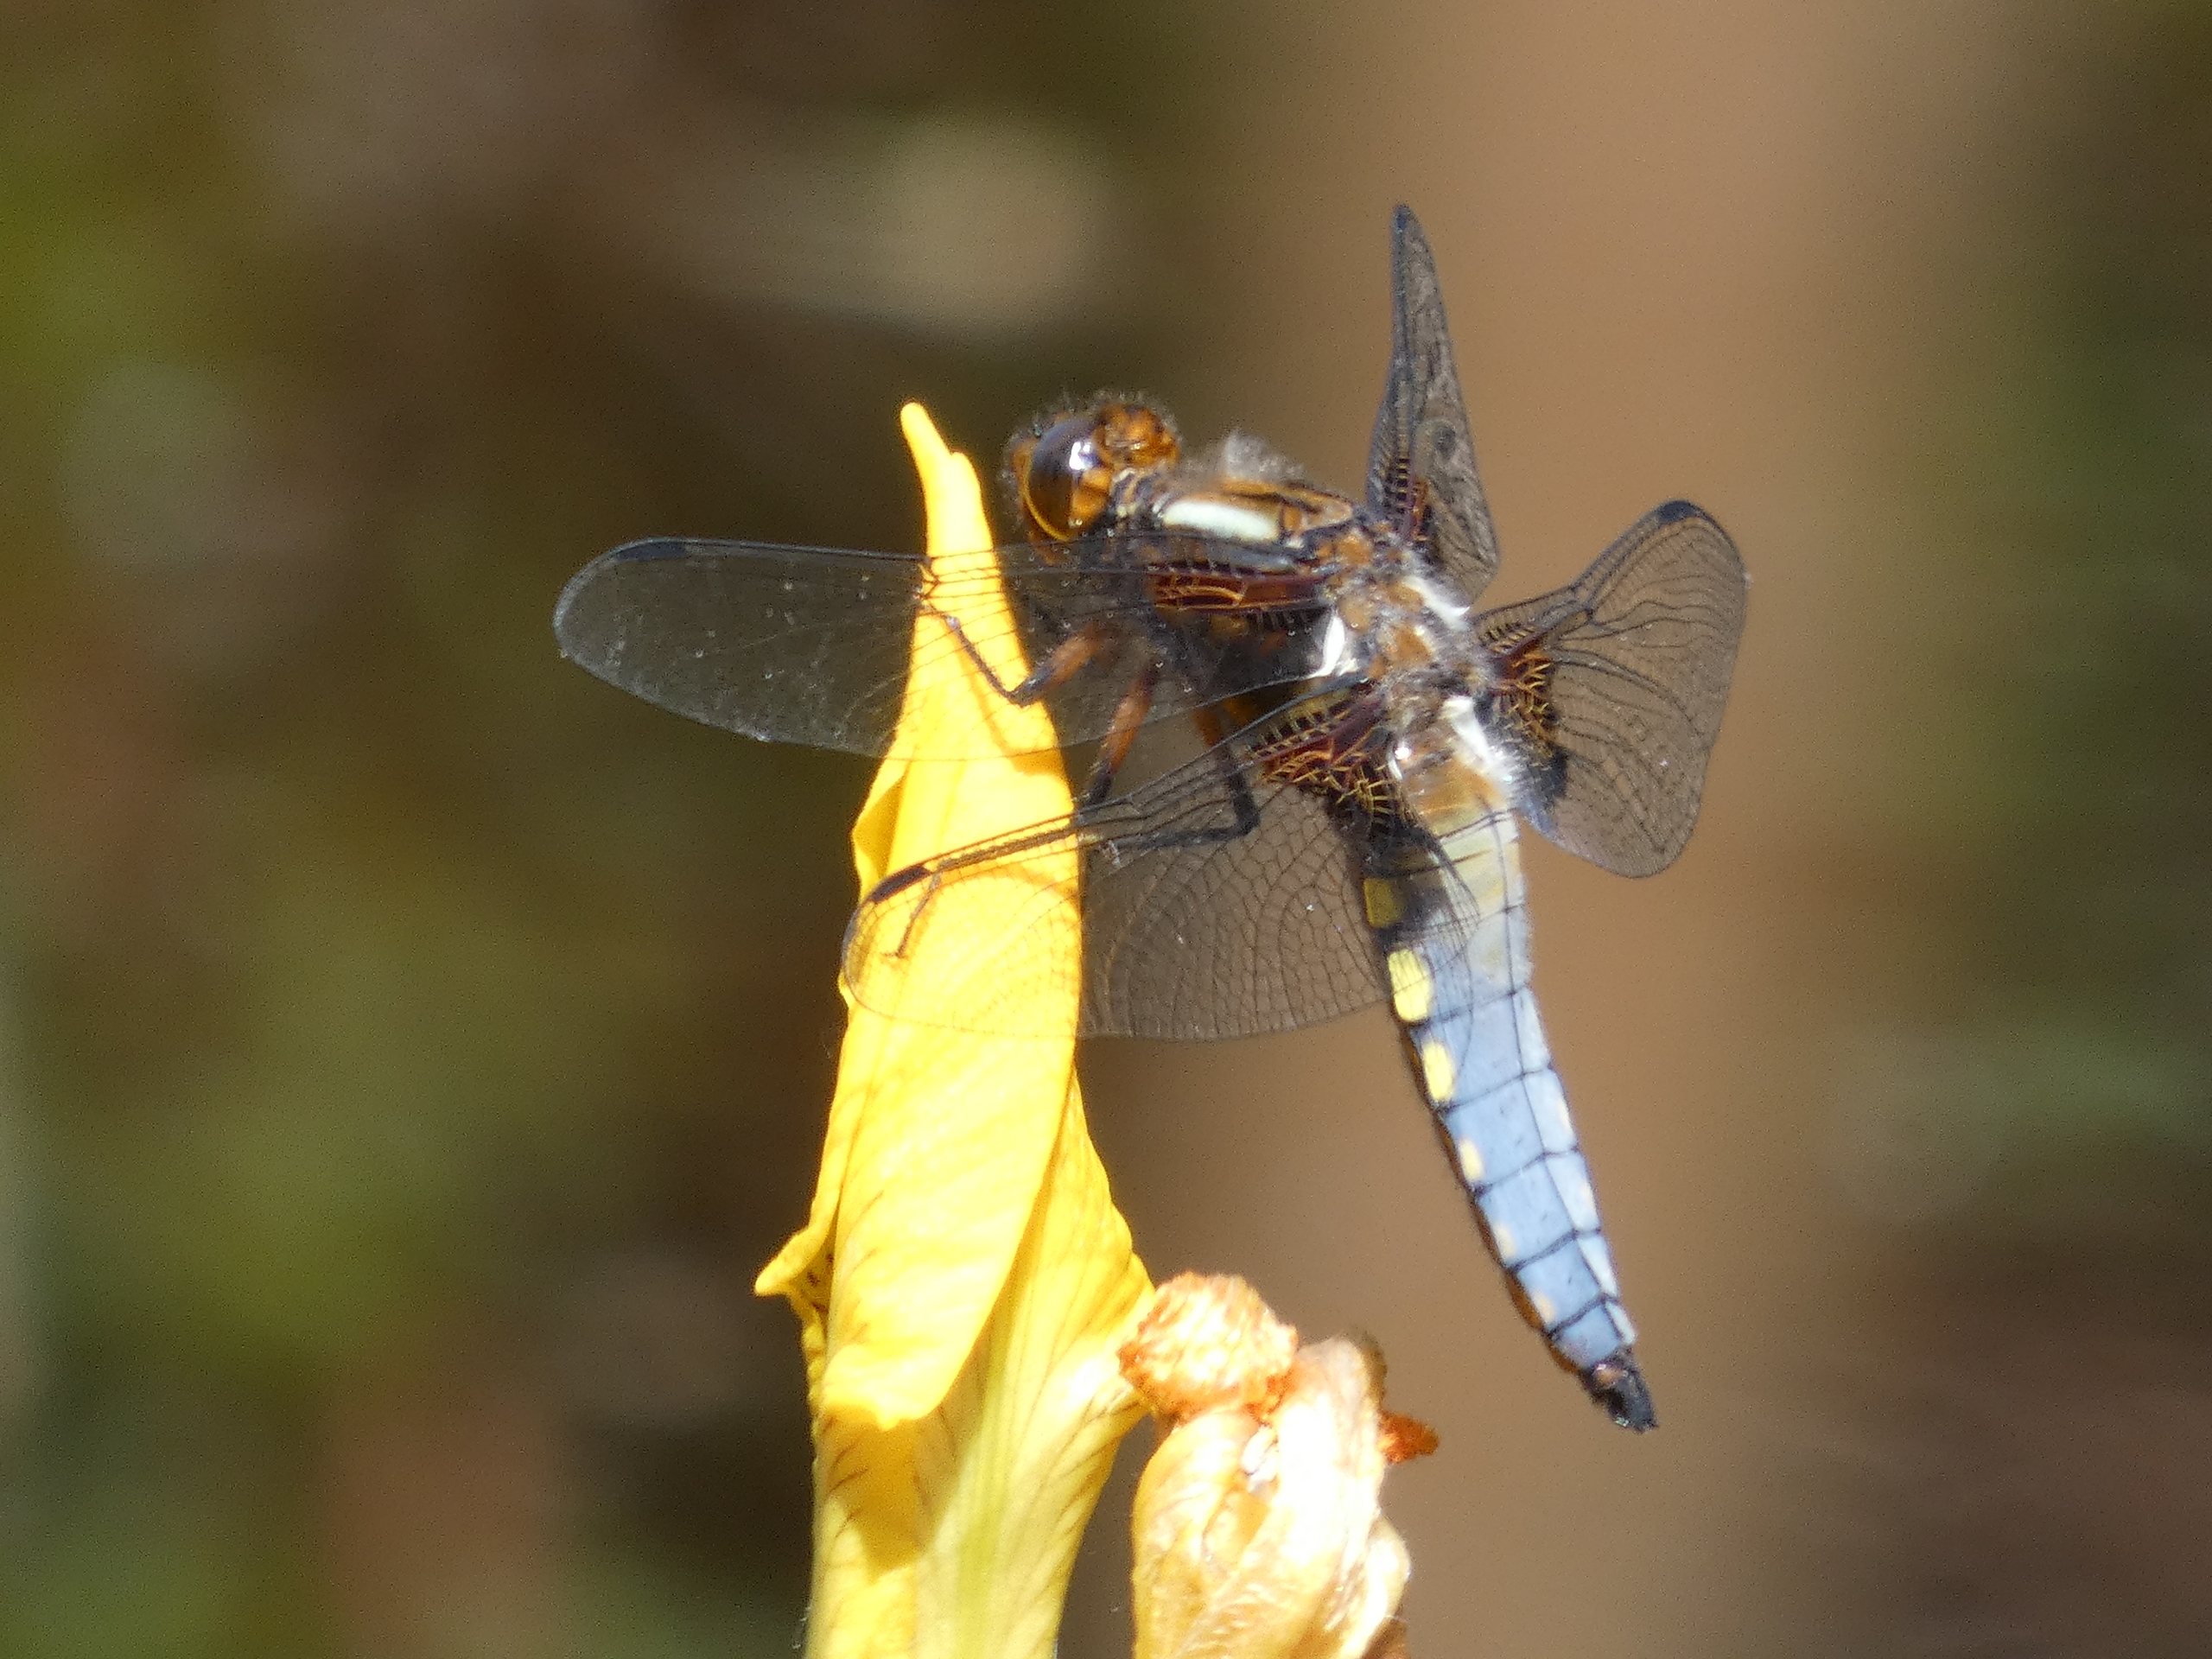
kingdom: Animalia
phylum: Arthropoda
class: Insecta
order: Odonata
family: Libellulidae
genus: Libellula
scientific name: Libellula depressa
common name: Blå libel
